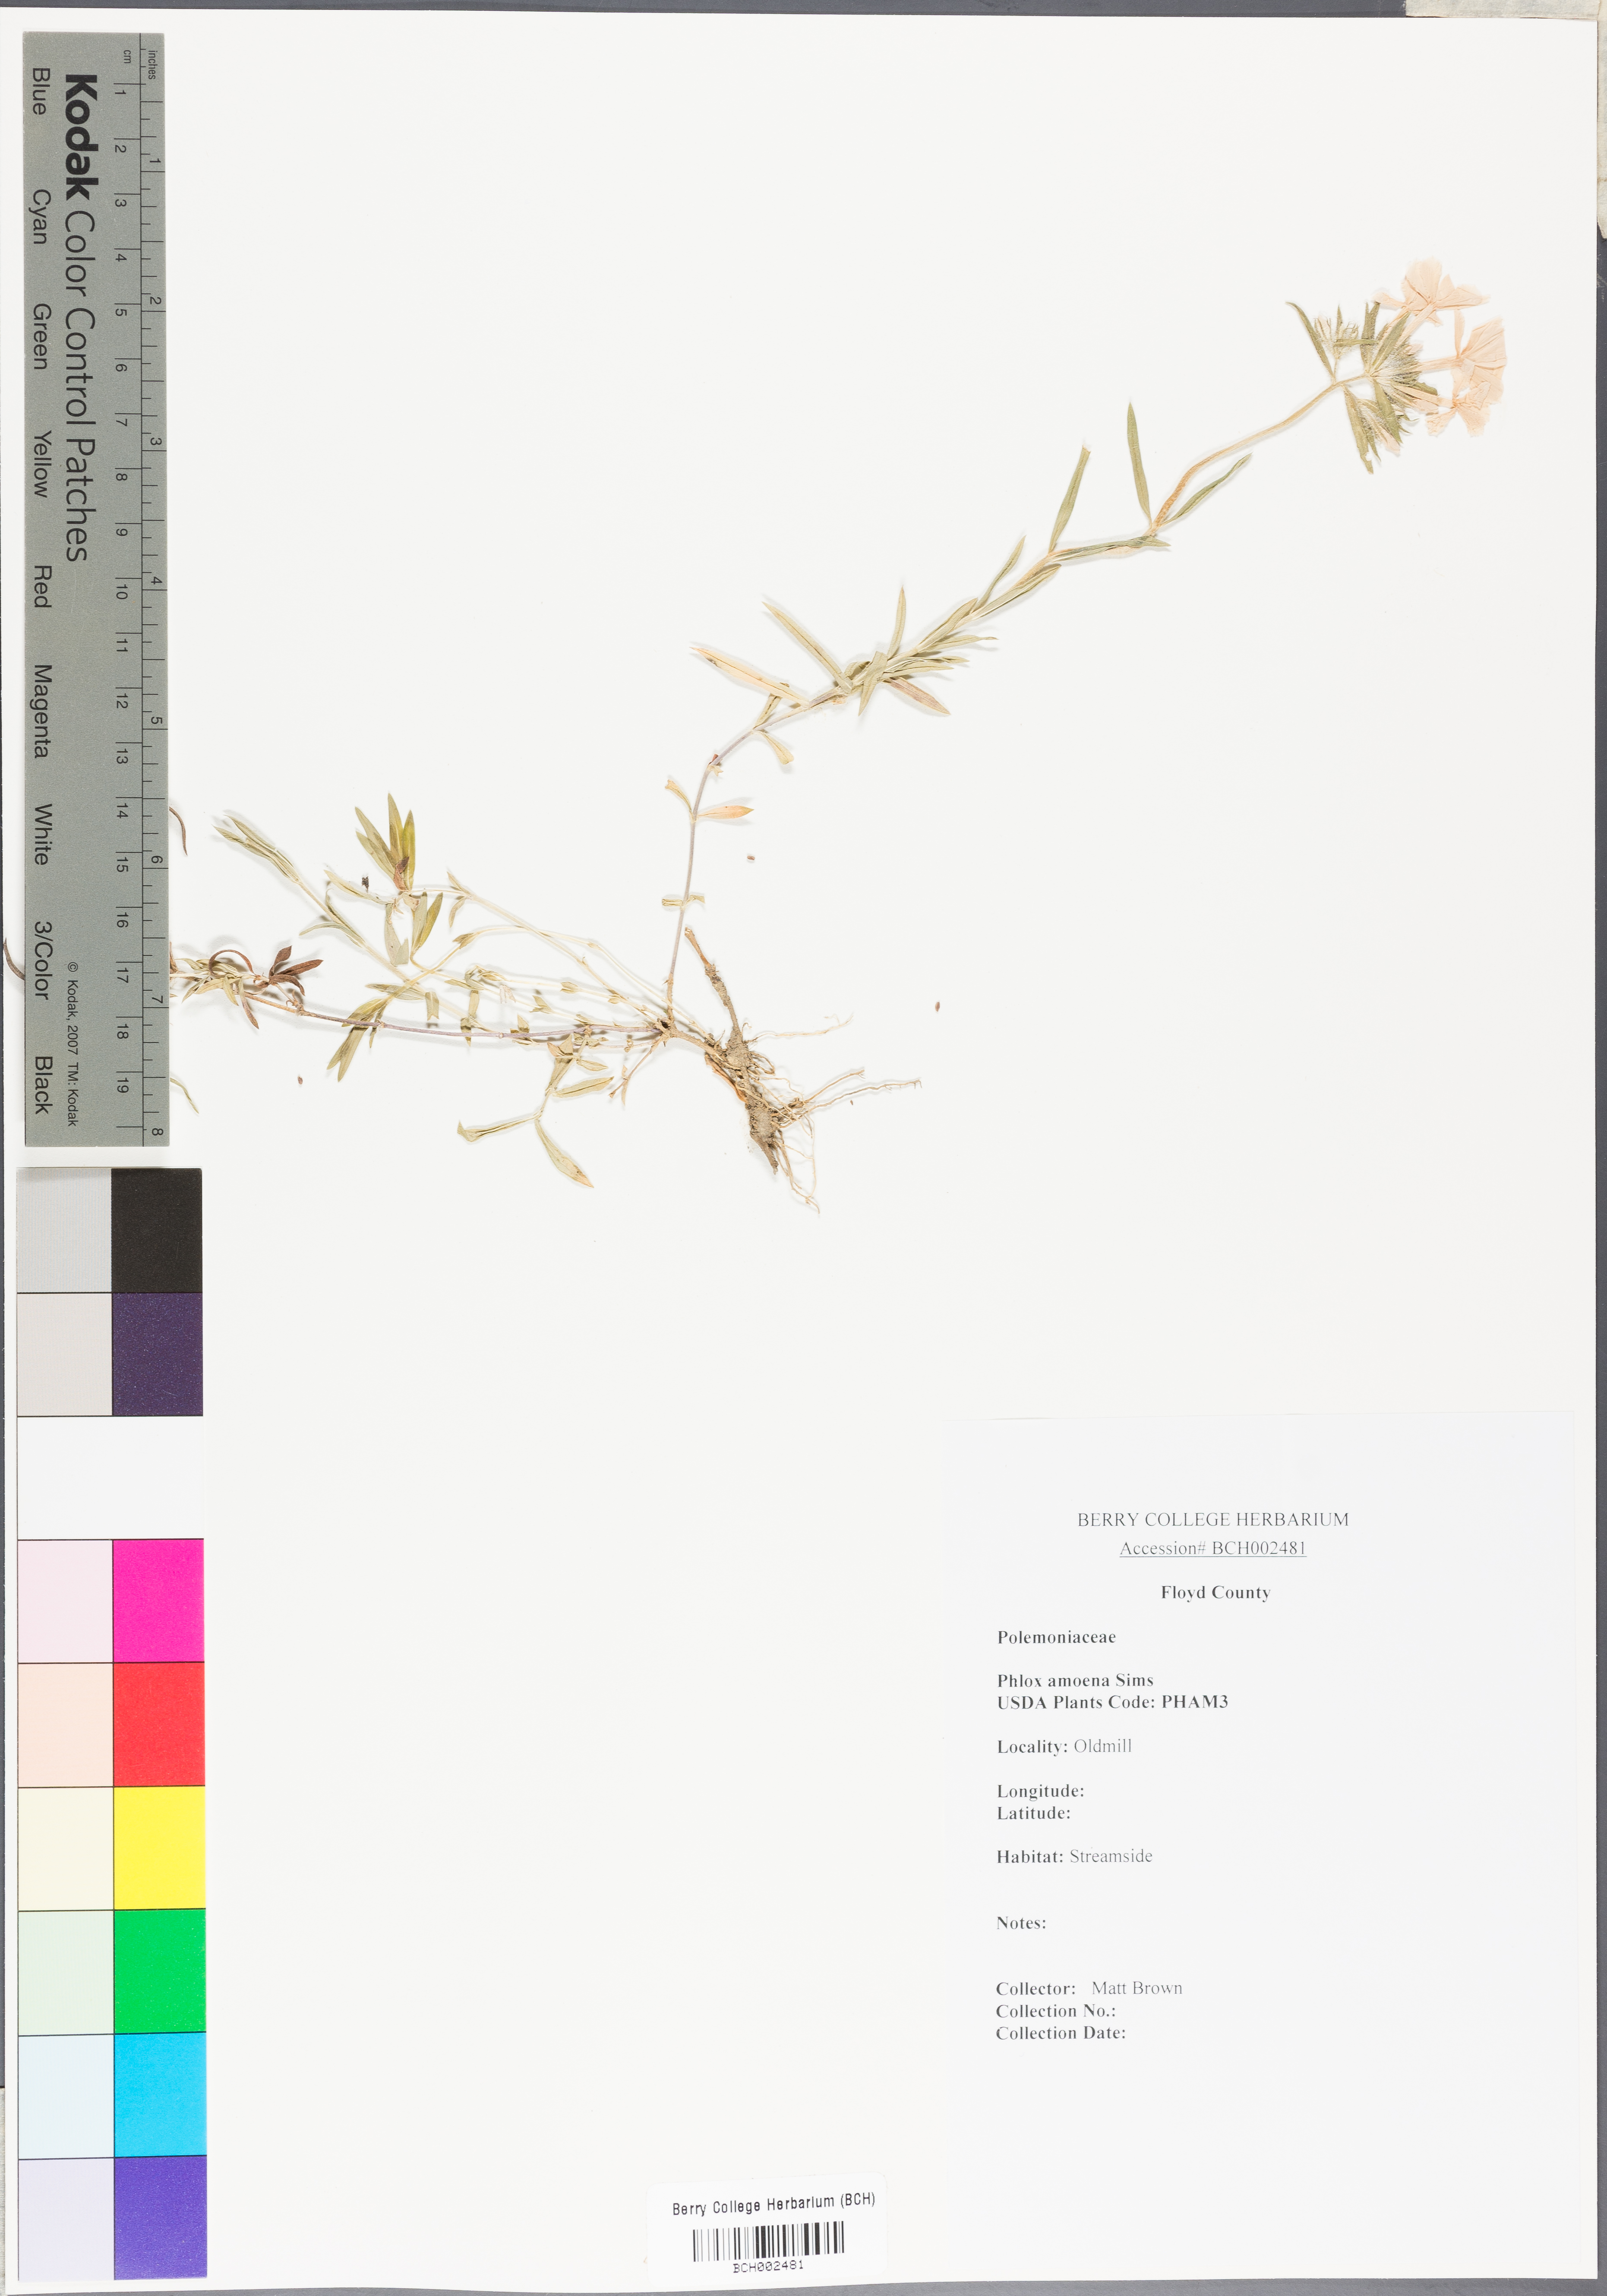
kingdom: Plantae
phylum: Tracheophyta
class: Magnoliopsida
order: Ericales
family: Polemoniaceae
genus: Phlox
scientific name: Phlox amoena
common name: Hairy phlox
